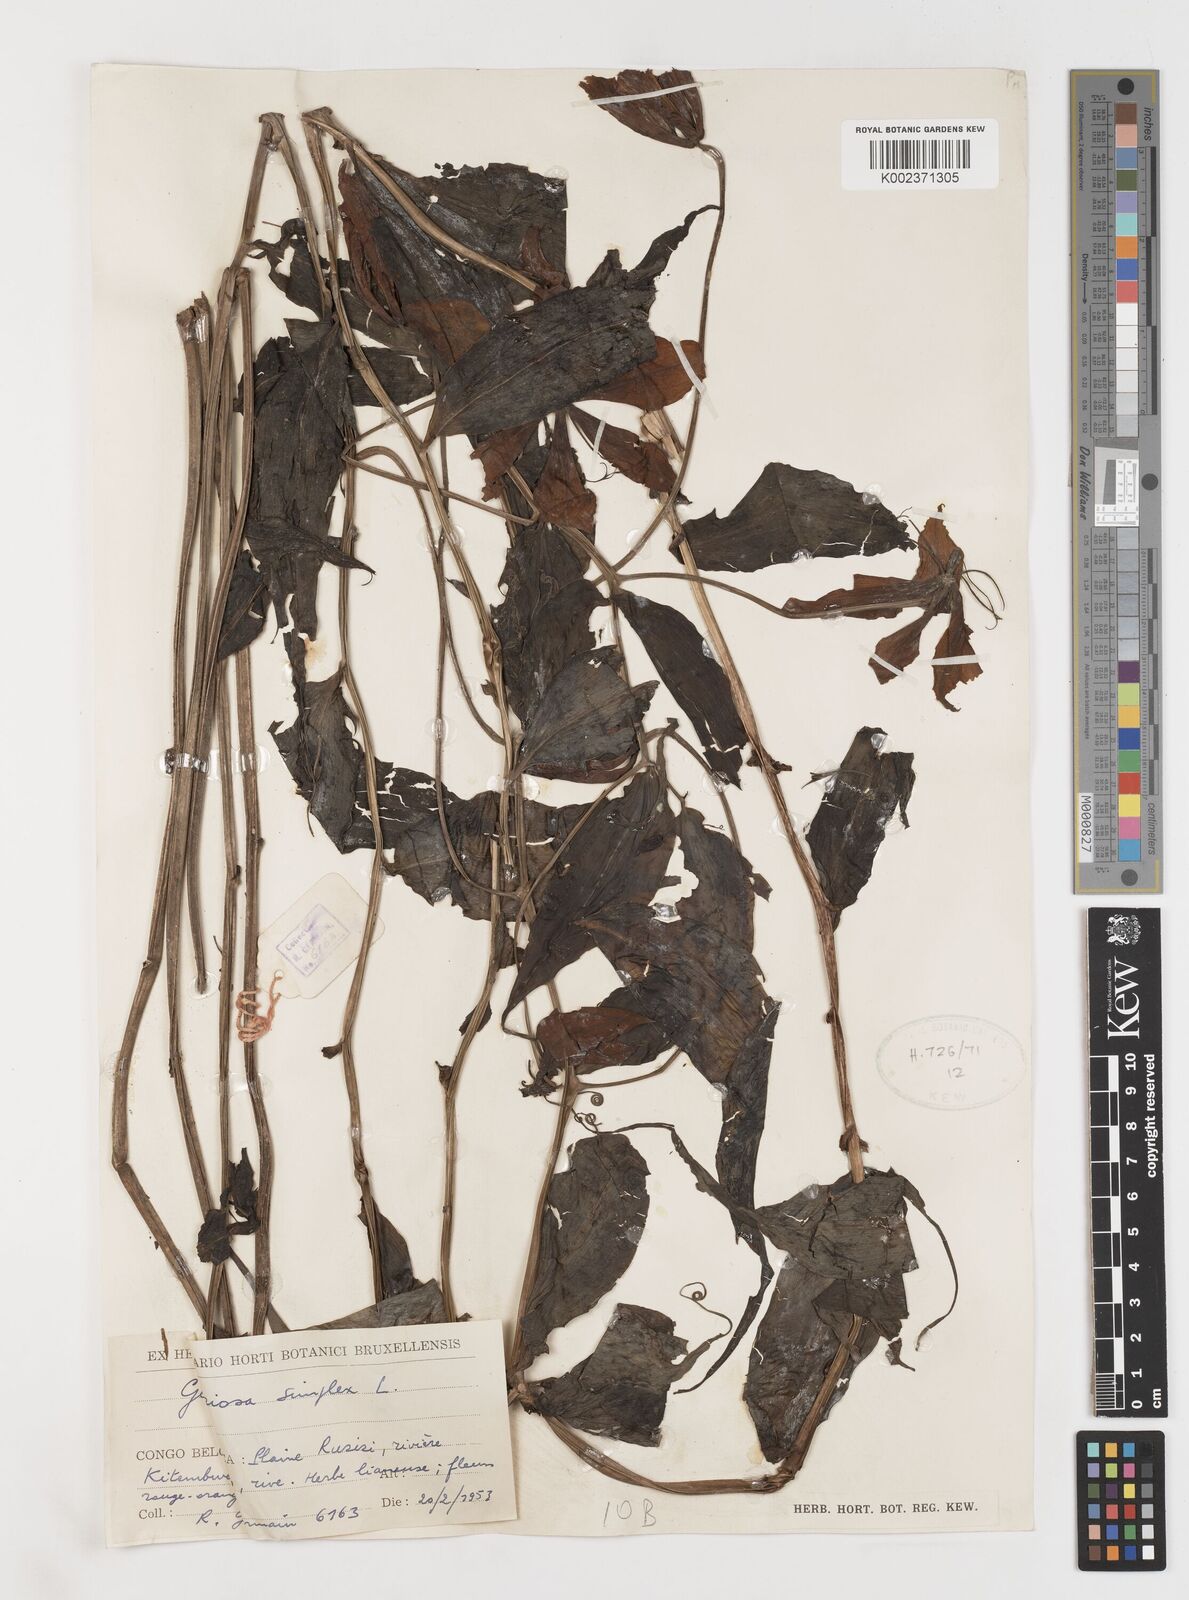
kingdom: Plantae
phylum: Tracheophyta
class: Liliopsida
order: Liliales
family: Colchicaceae
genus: Gloriosa
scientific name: Gloriosa simplex
